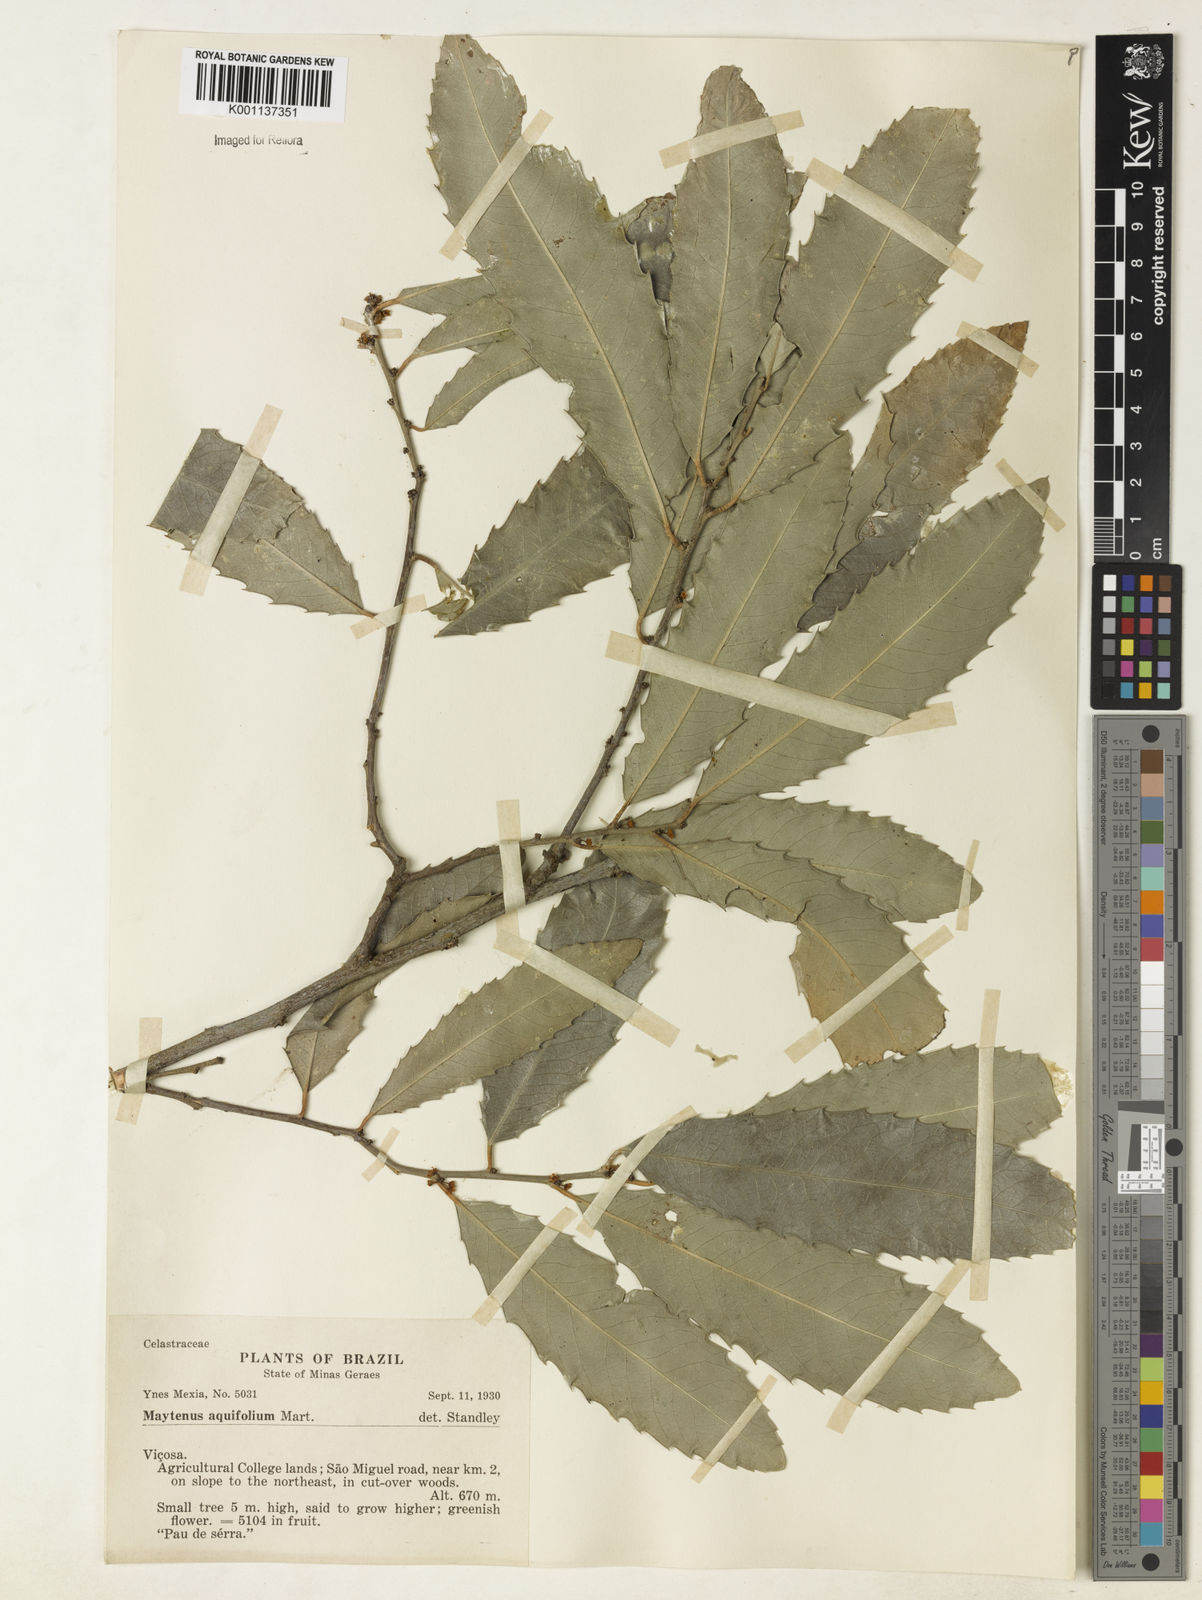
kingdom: Plantae
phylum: Tracheophyta
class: Magnoliopsida
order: Celastrales
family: Celastraceae
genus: Monteverdia
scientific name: Monteverdia aquifolium
